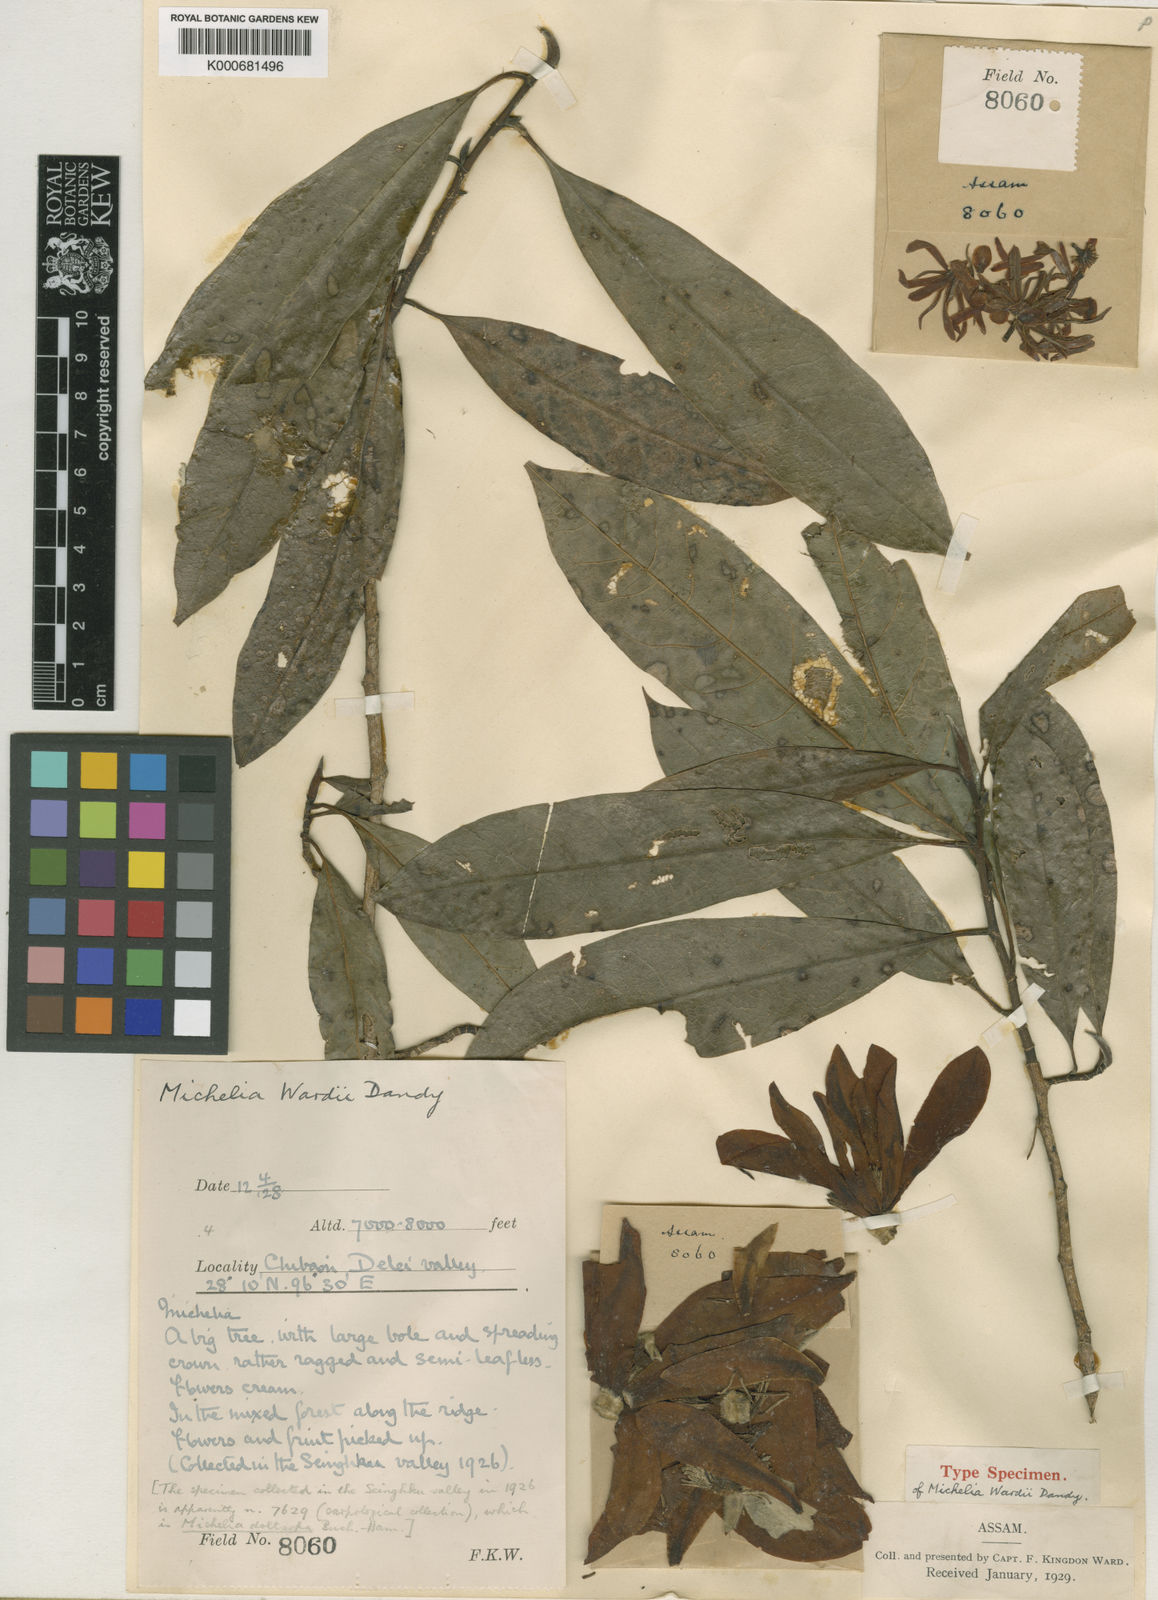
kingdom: Plantae
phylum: Tracheophyta
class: Magnoliopsida
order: Magnoliales
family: Magnoliaceae
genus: Magnolia
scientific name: Magnolia doltsopa
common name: Sweet michelia
